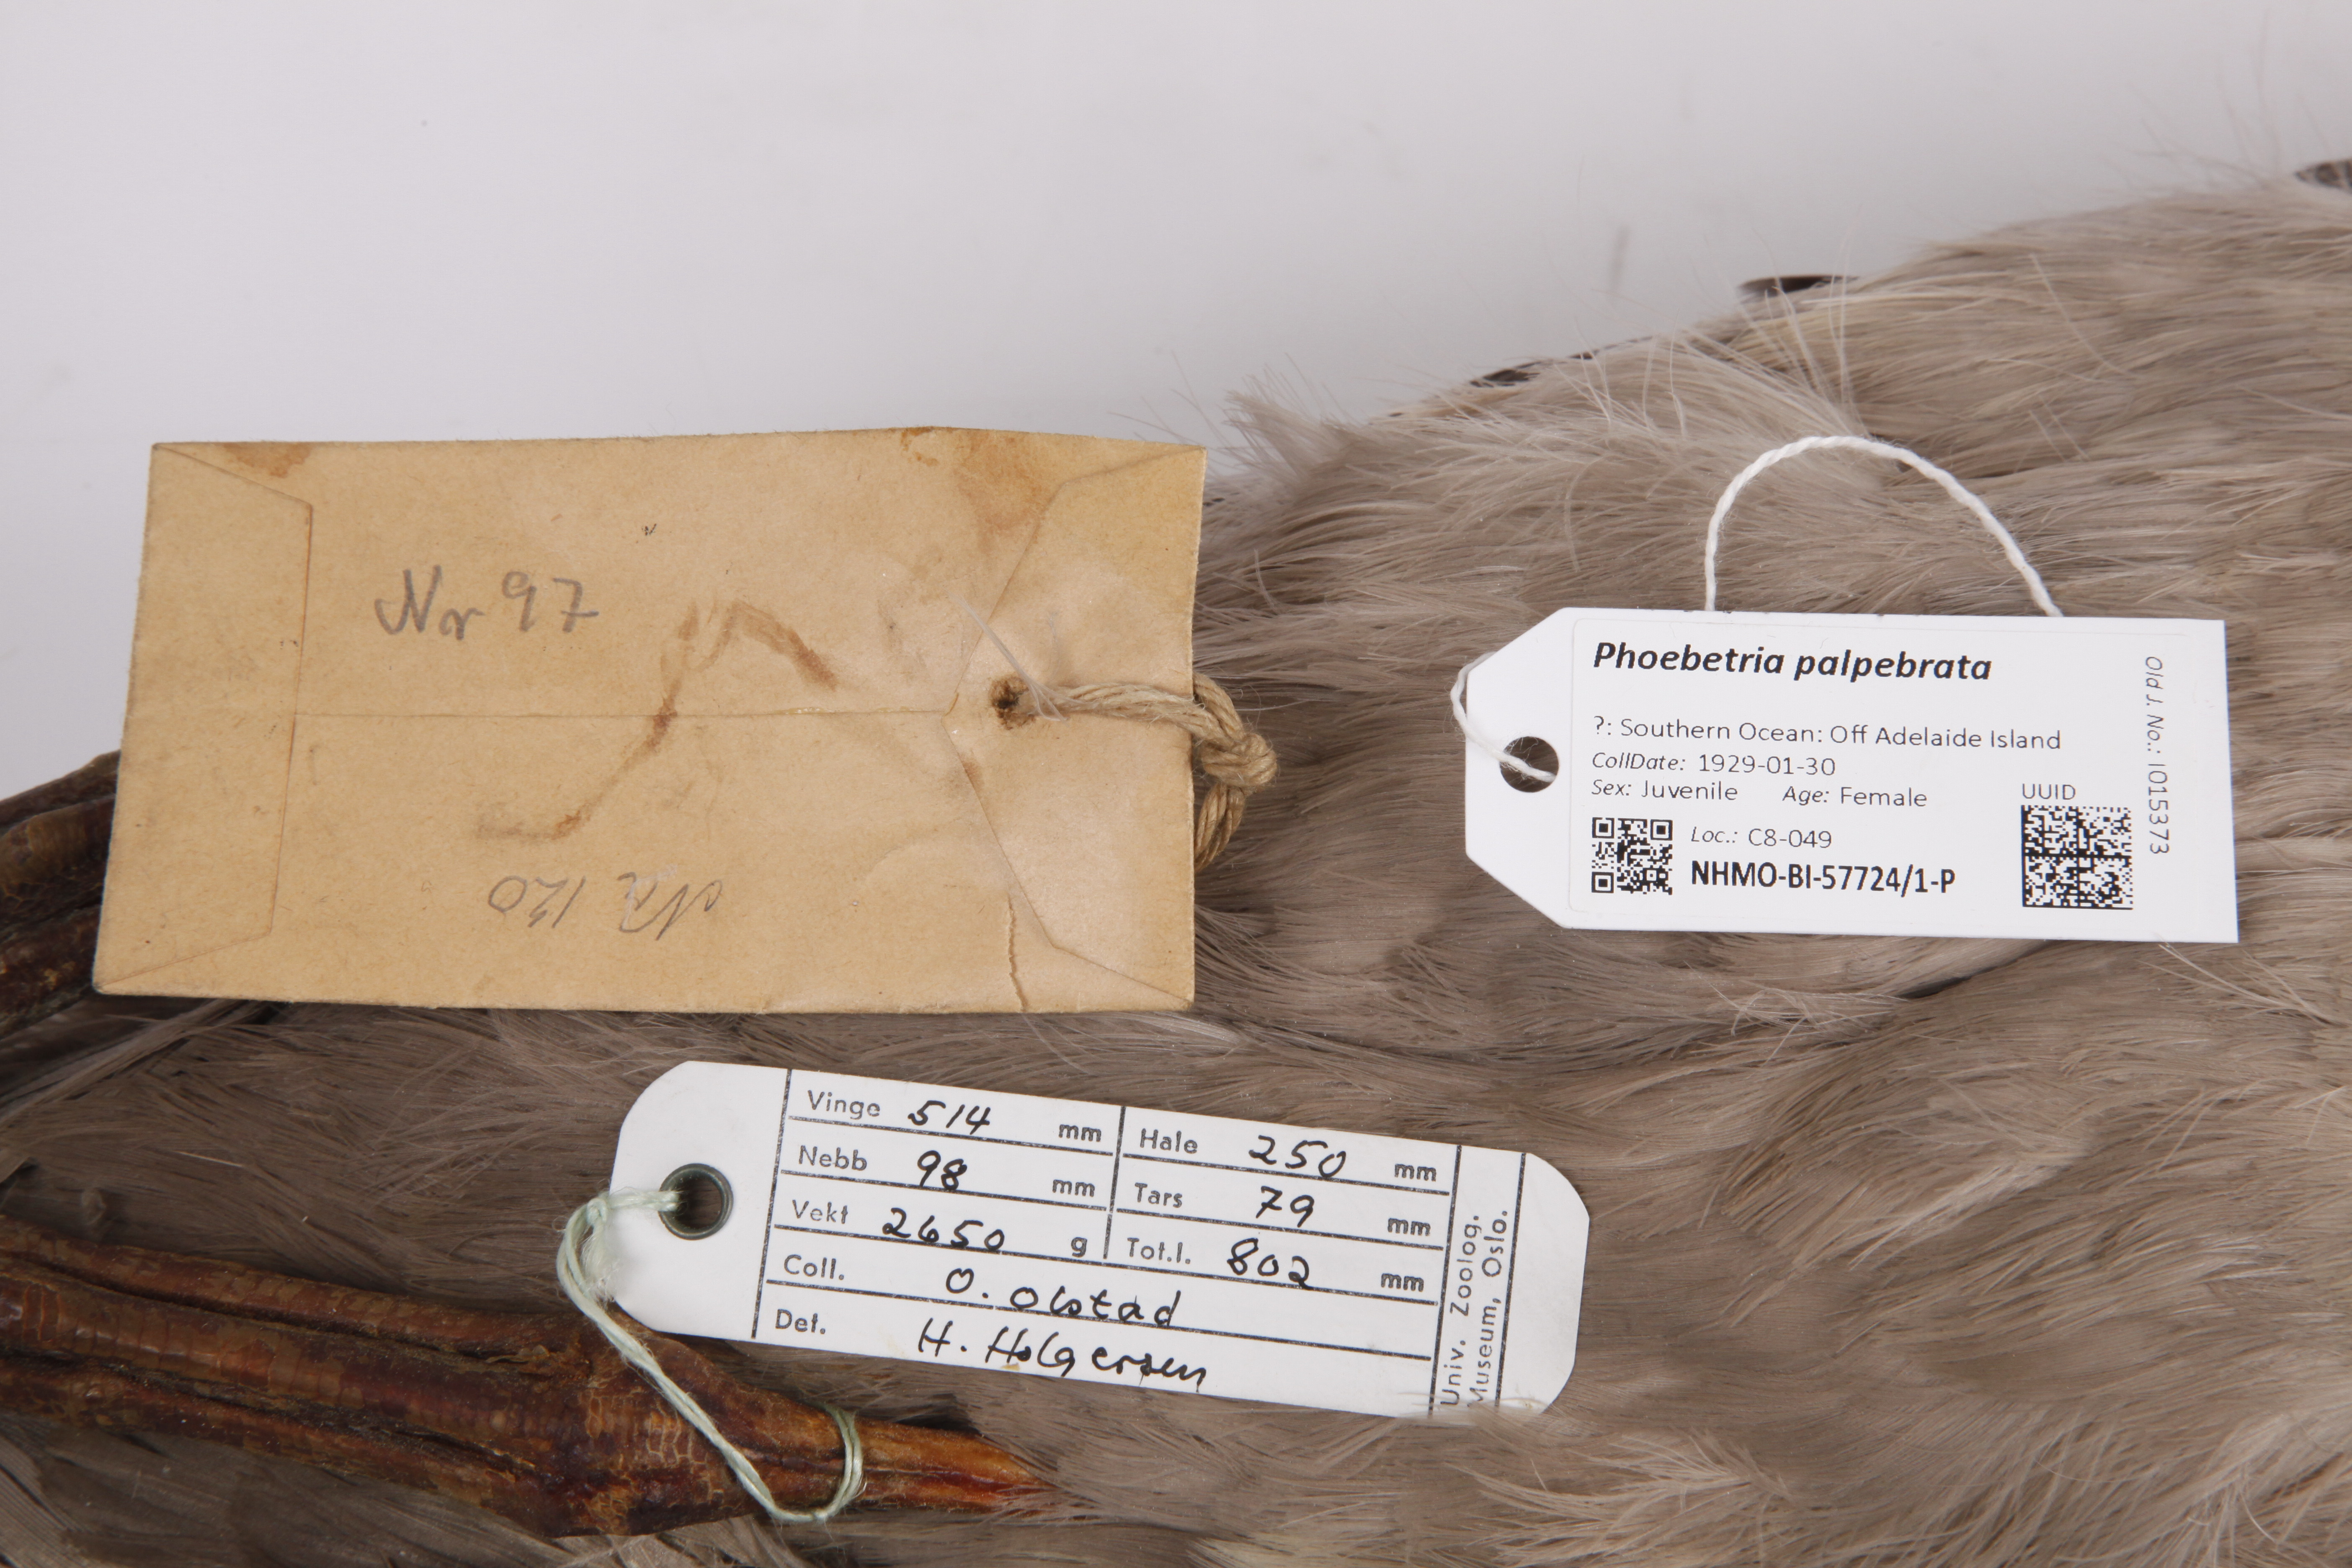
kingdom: Animalia
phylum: Chordata
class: Aves
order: Procellariiformes
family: Diomedeidae
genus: Phoebetria
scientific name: Phoebetria palpebrata
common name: Light-mantled albatross
